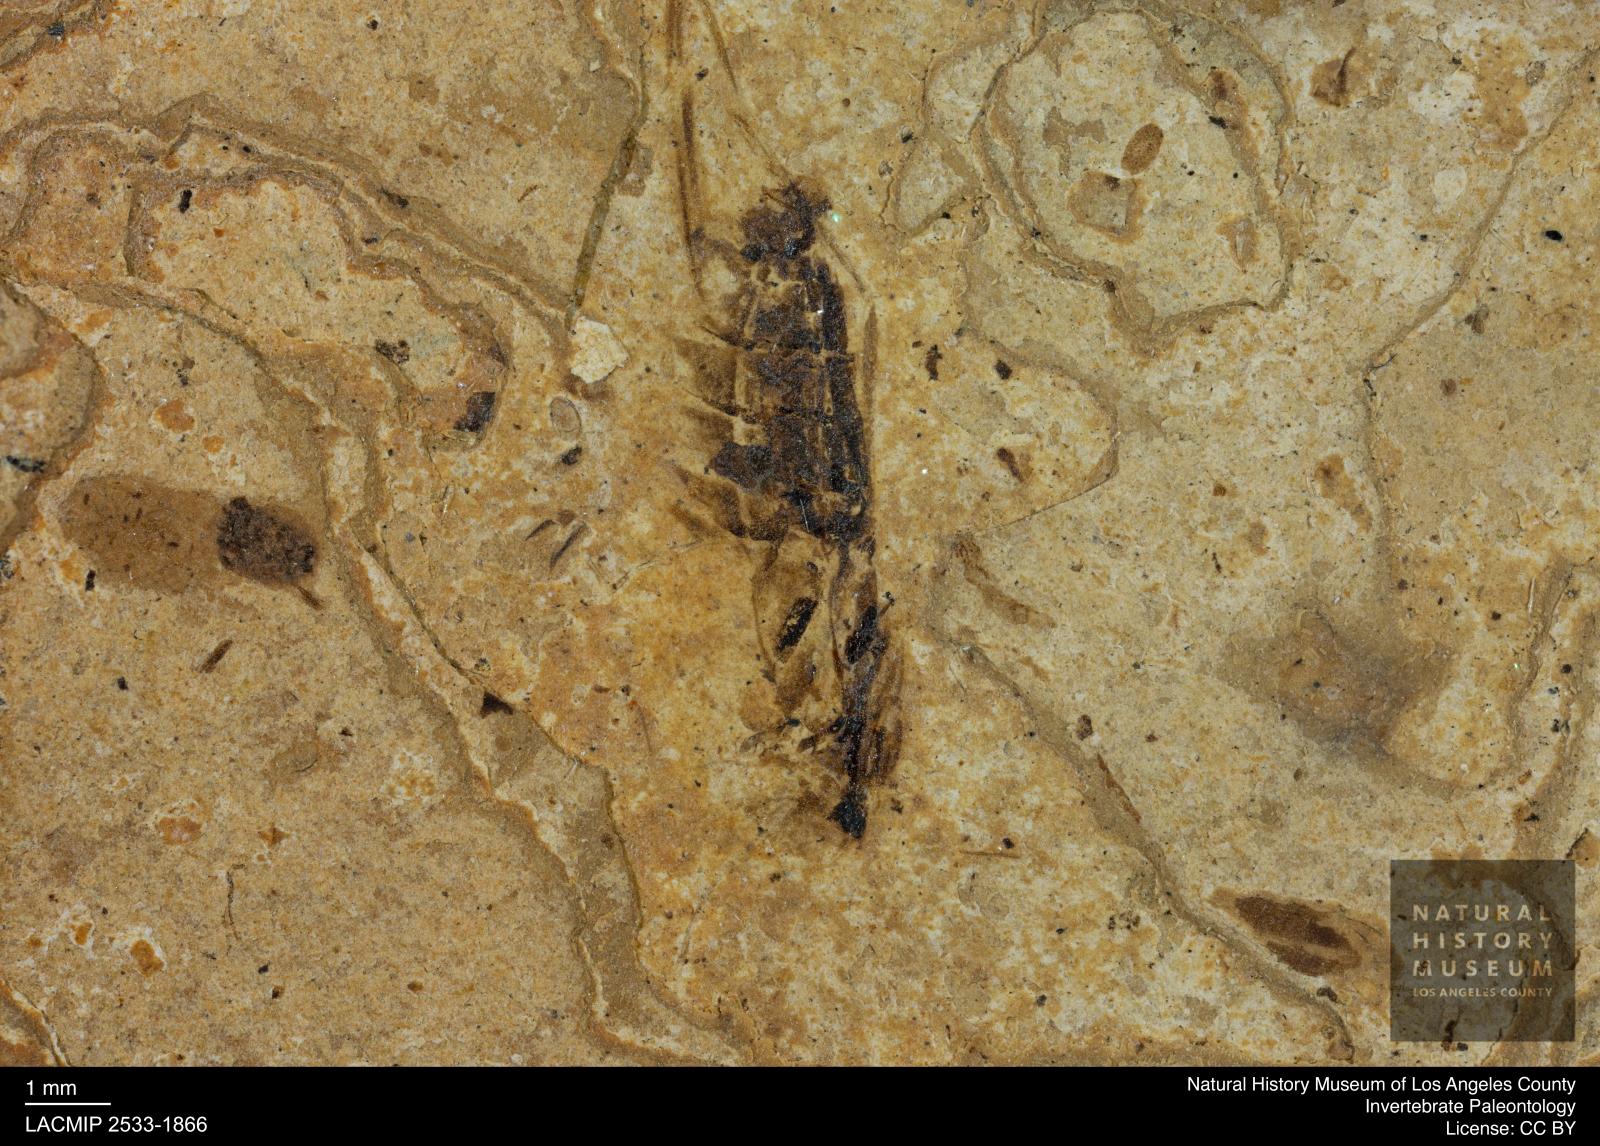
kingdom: Animalia
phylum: Arthropoda
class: Insecta
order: Hemiptera
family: Notonectidae
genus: Notonecta
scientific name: Notonecta
